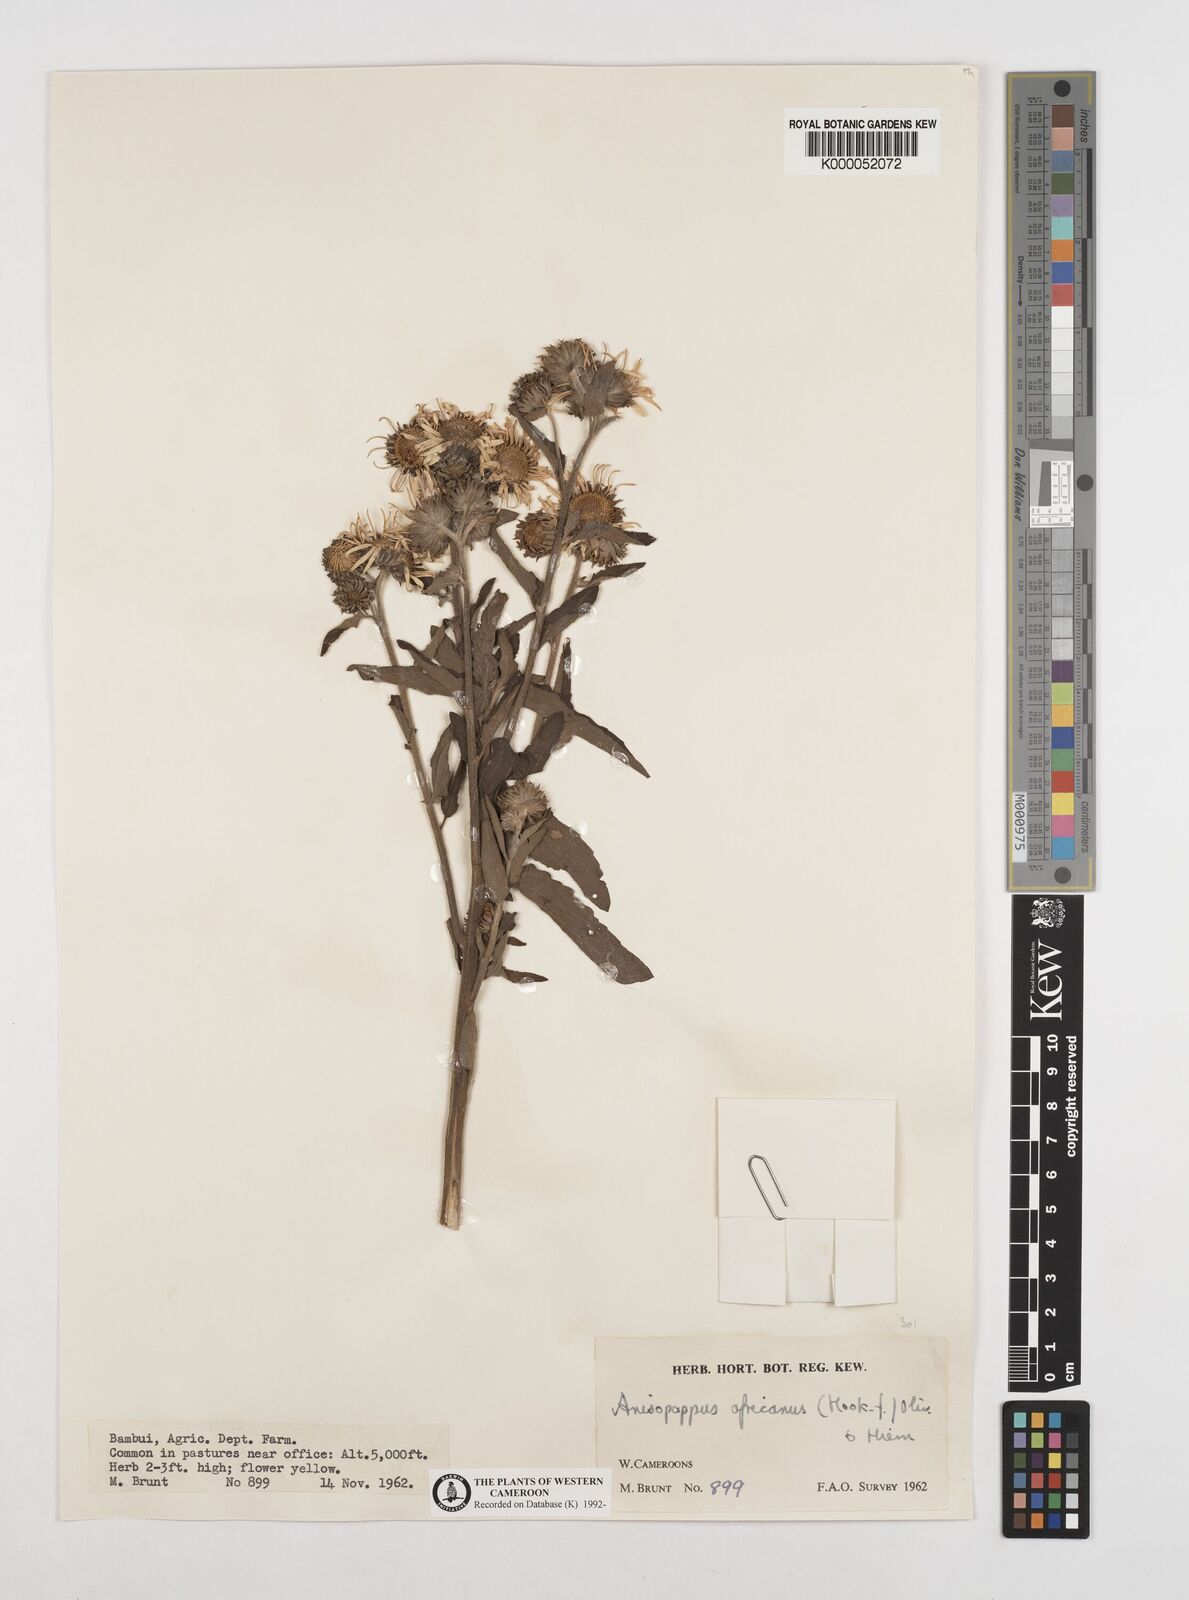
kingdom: Plantae
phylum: Tracheophyta
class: Magnoliopsida
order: Asterales
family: Asteraceae
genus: Anisopappus
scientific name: Anisopappus africanus
